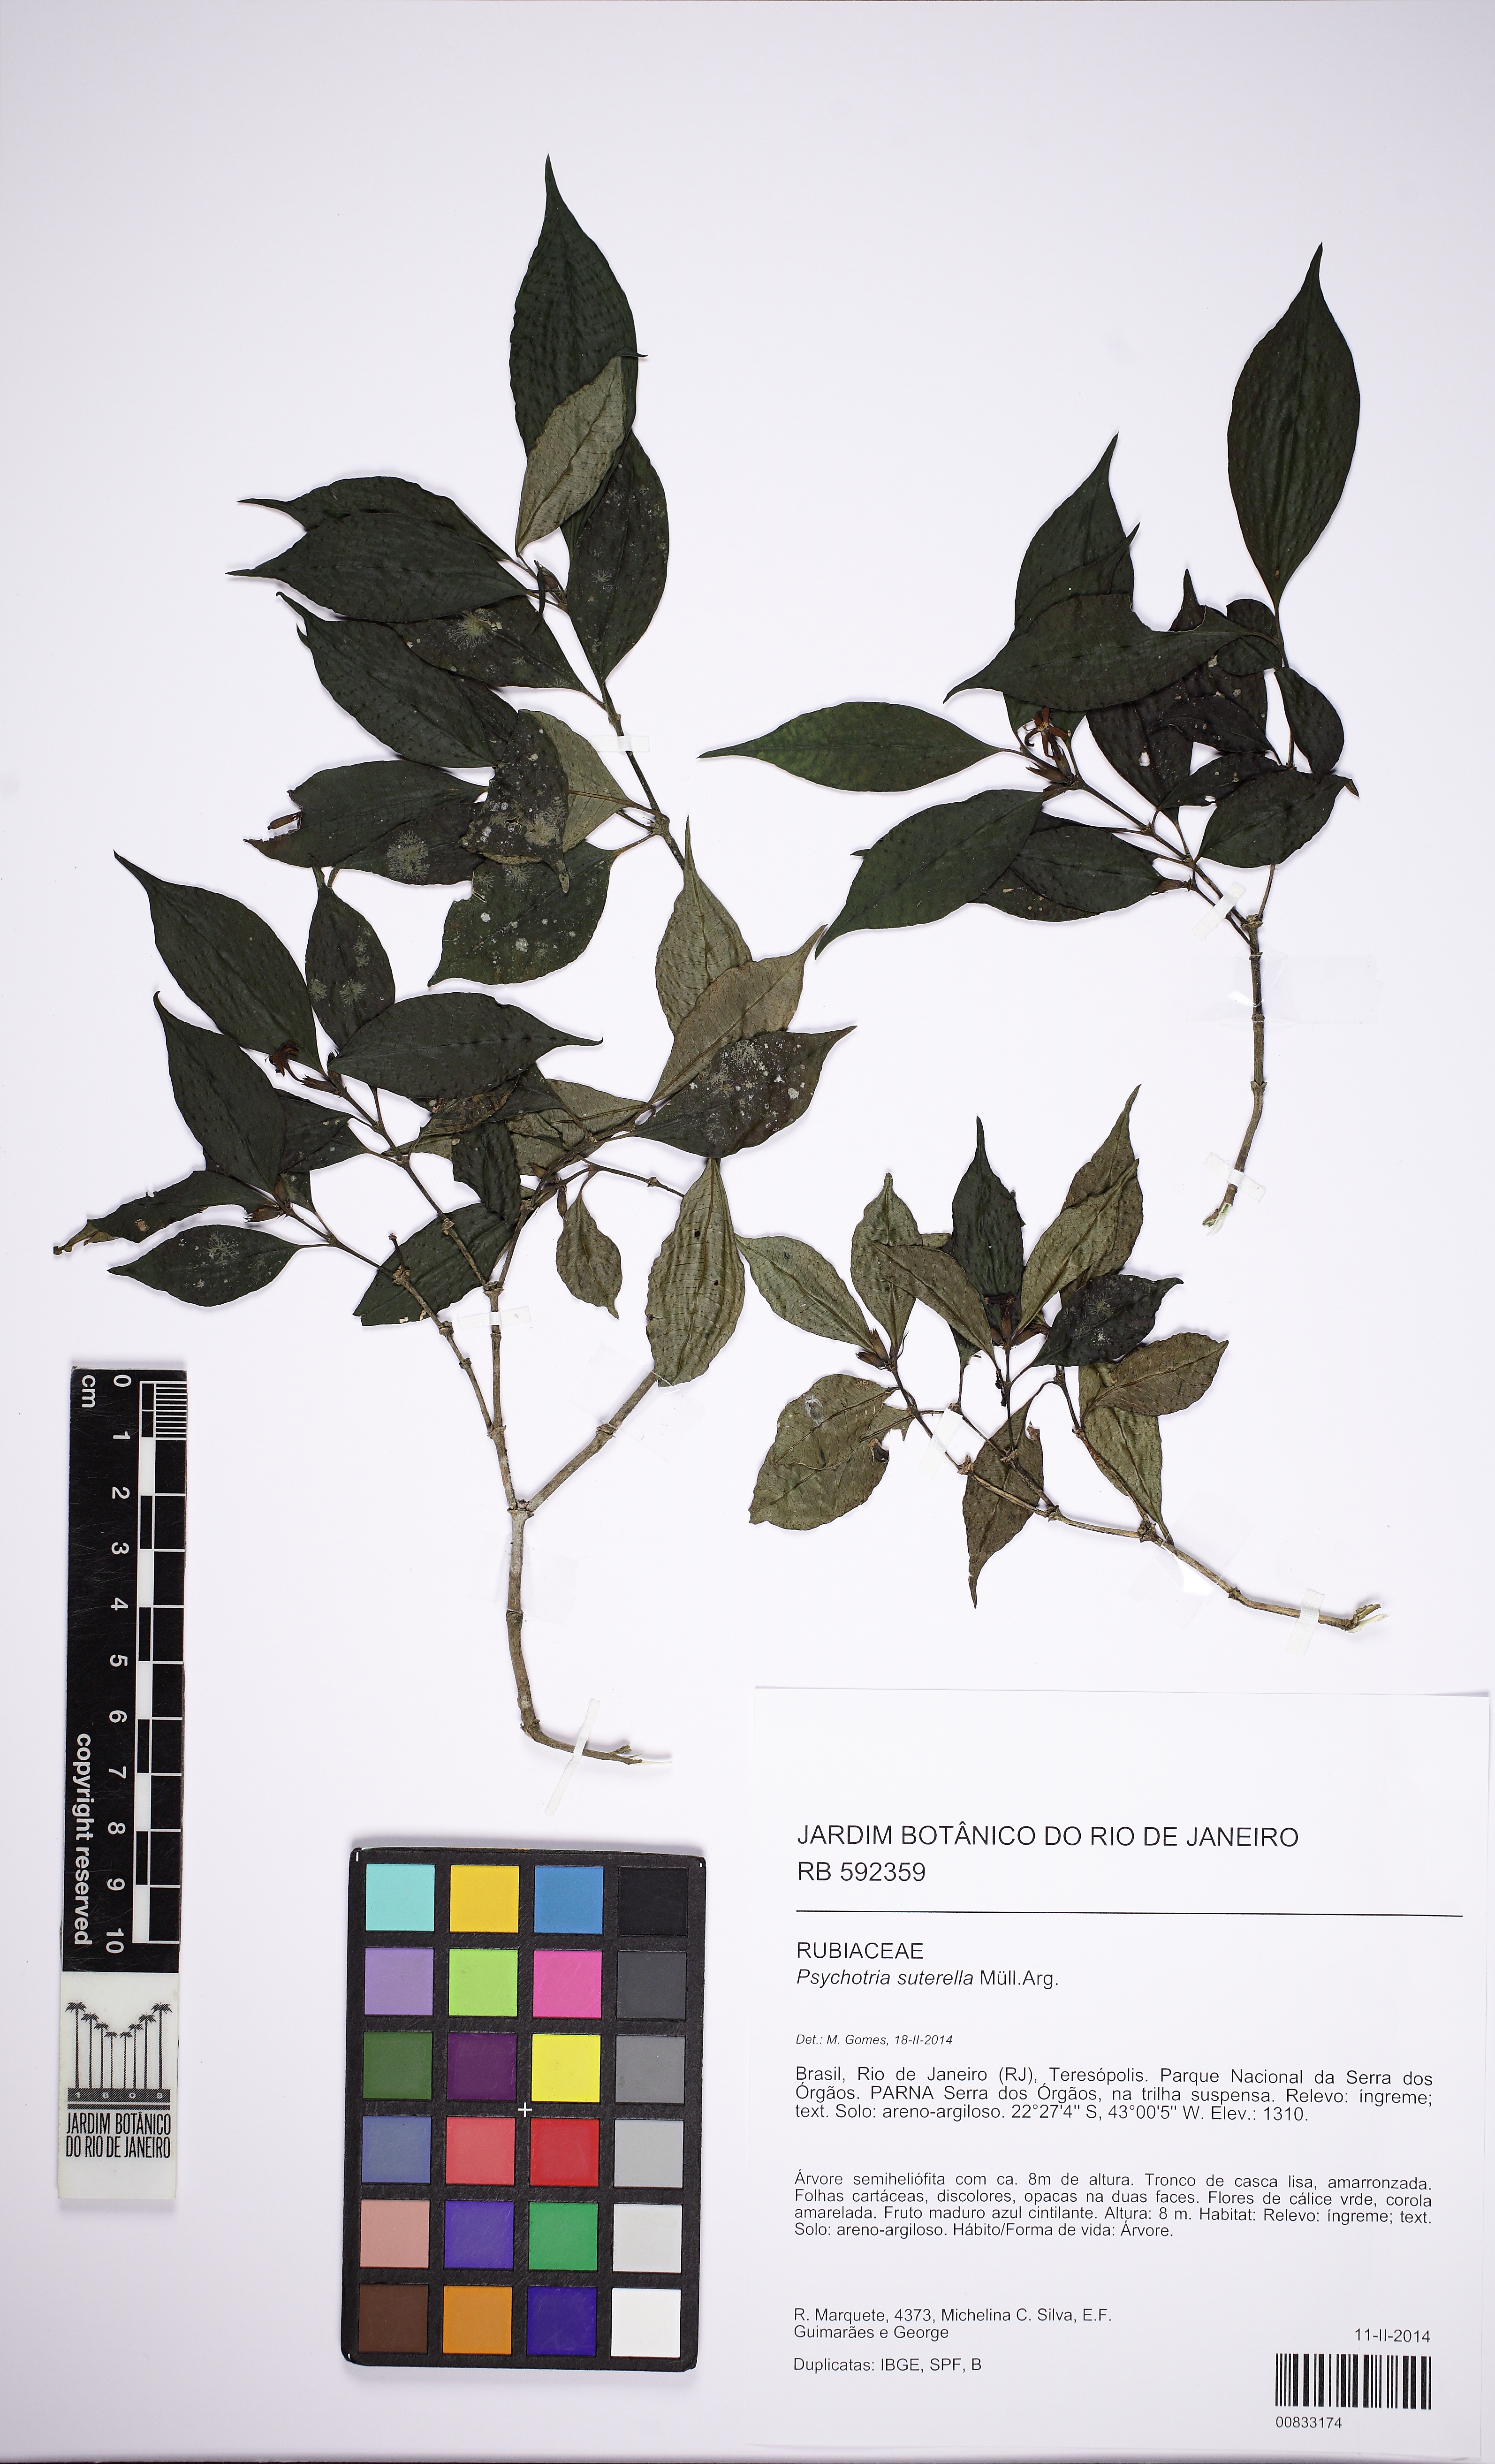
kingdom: Plantae
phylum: Tracheophyta
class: Magnoliopsida
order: Gentianales
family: Rubiaceae
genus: Psychotria
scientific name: Psychotria suterella
